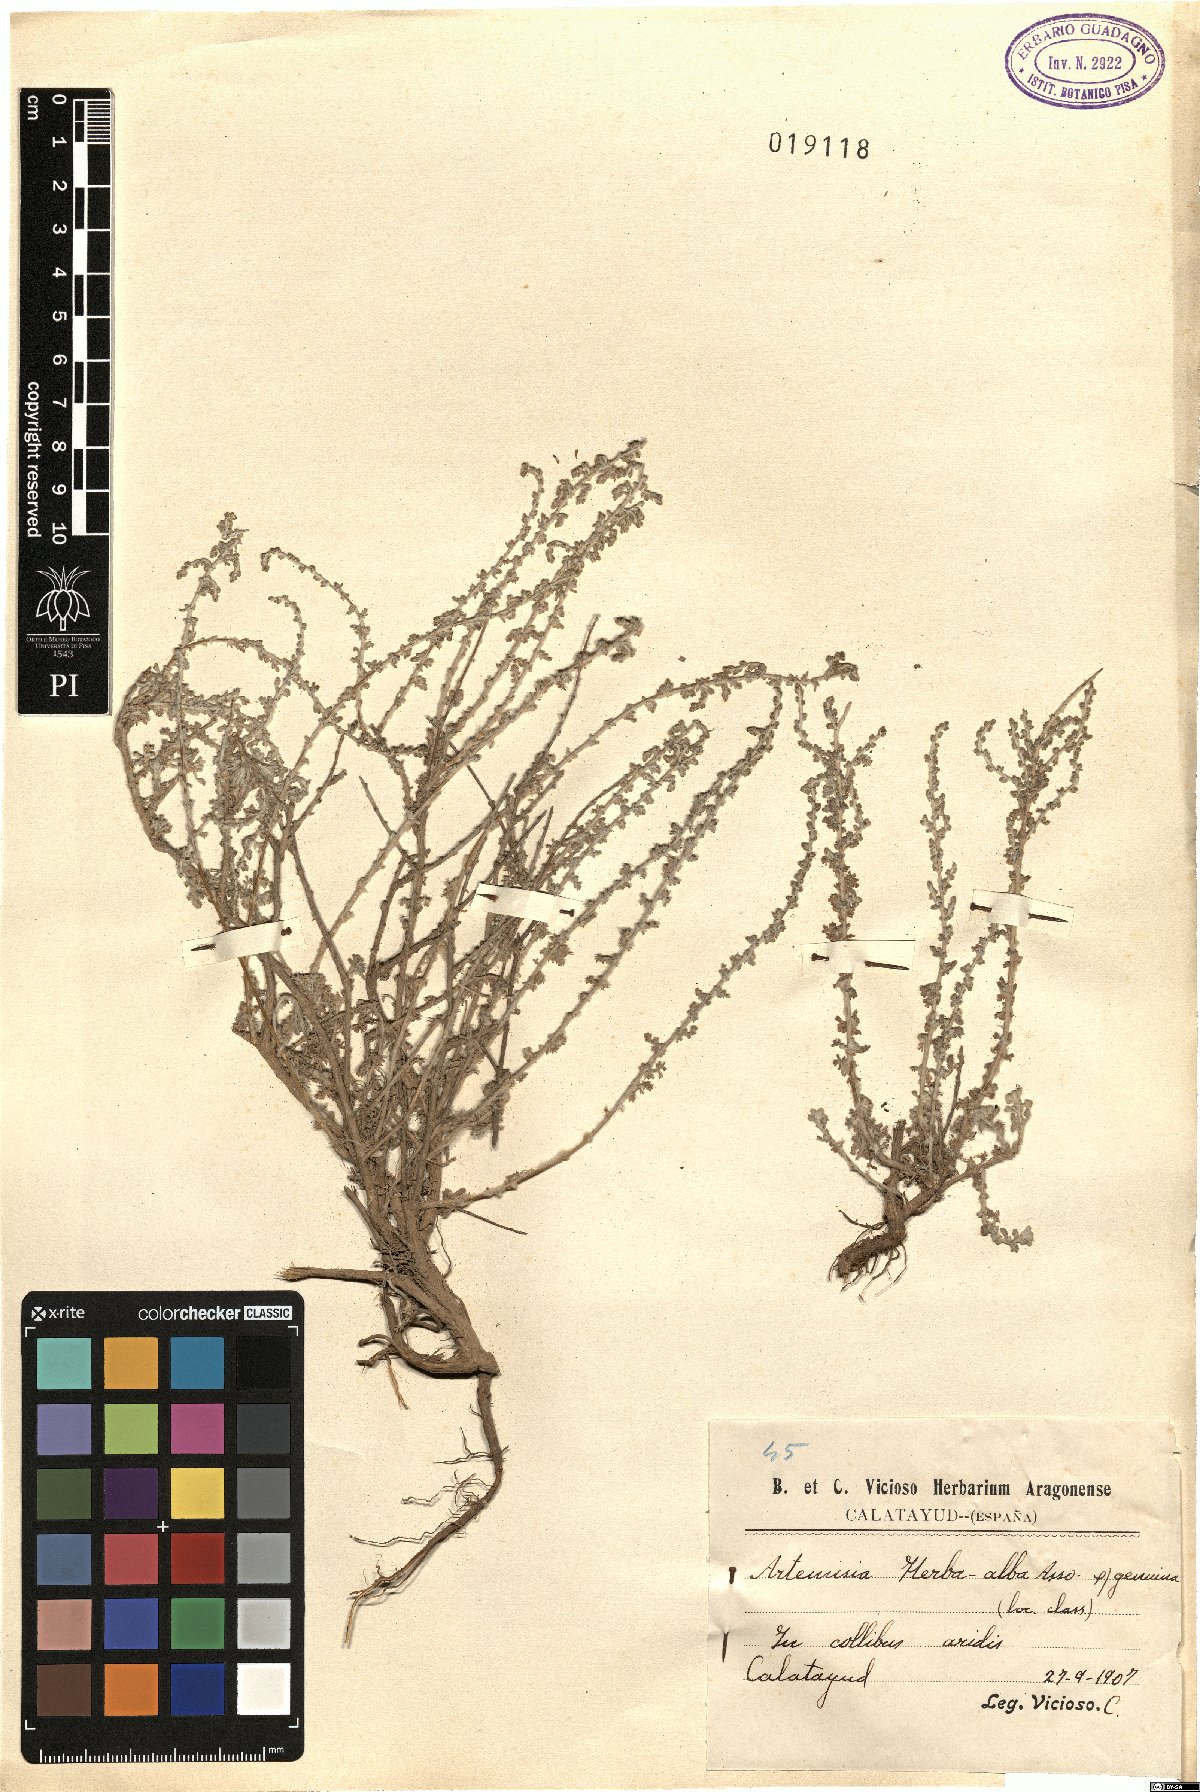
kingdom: Plantae
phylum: Tracheophyta
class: Magnoliopsida
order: Asterales
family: Asteraceae
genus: Artemisia
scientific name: Artemisia herba-alba
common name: White wormwood
